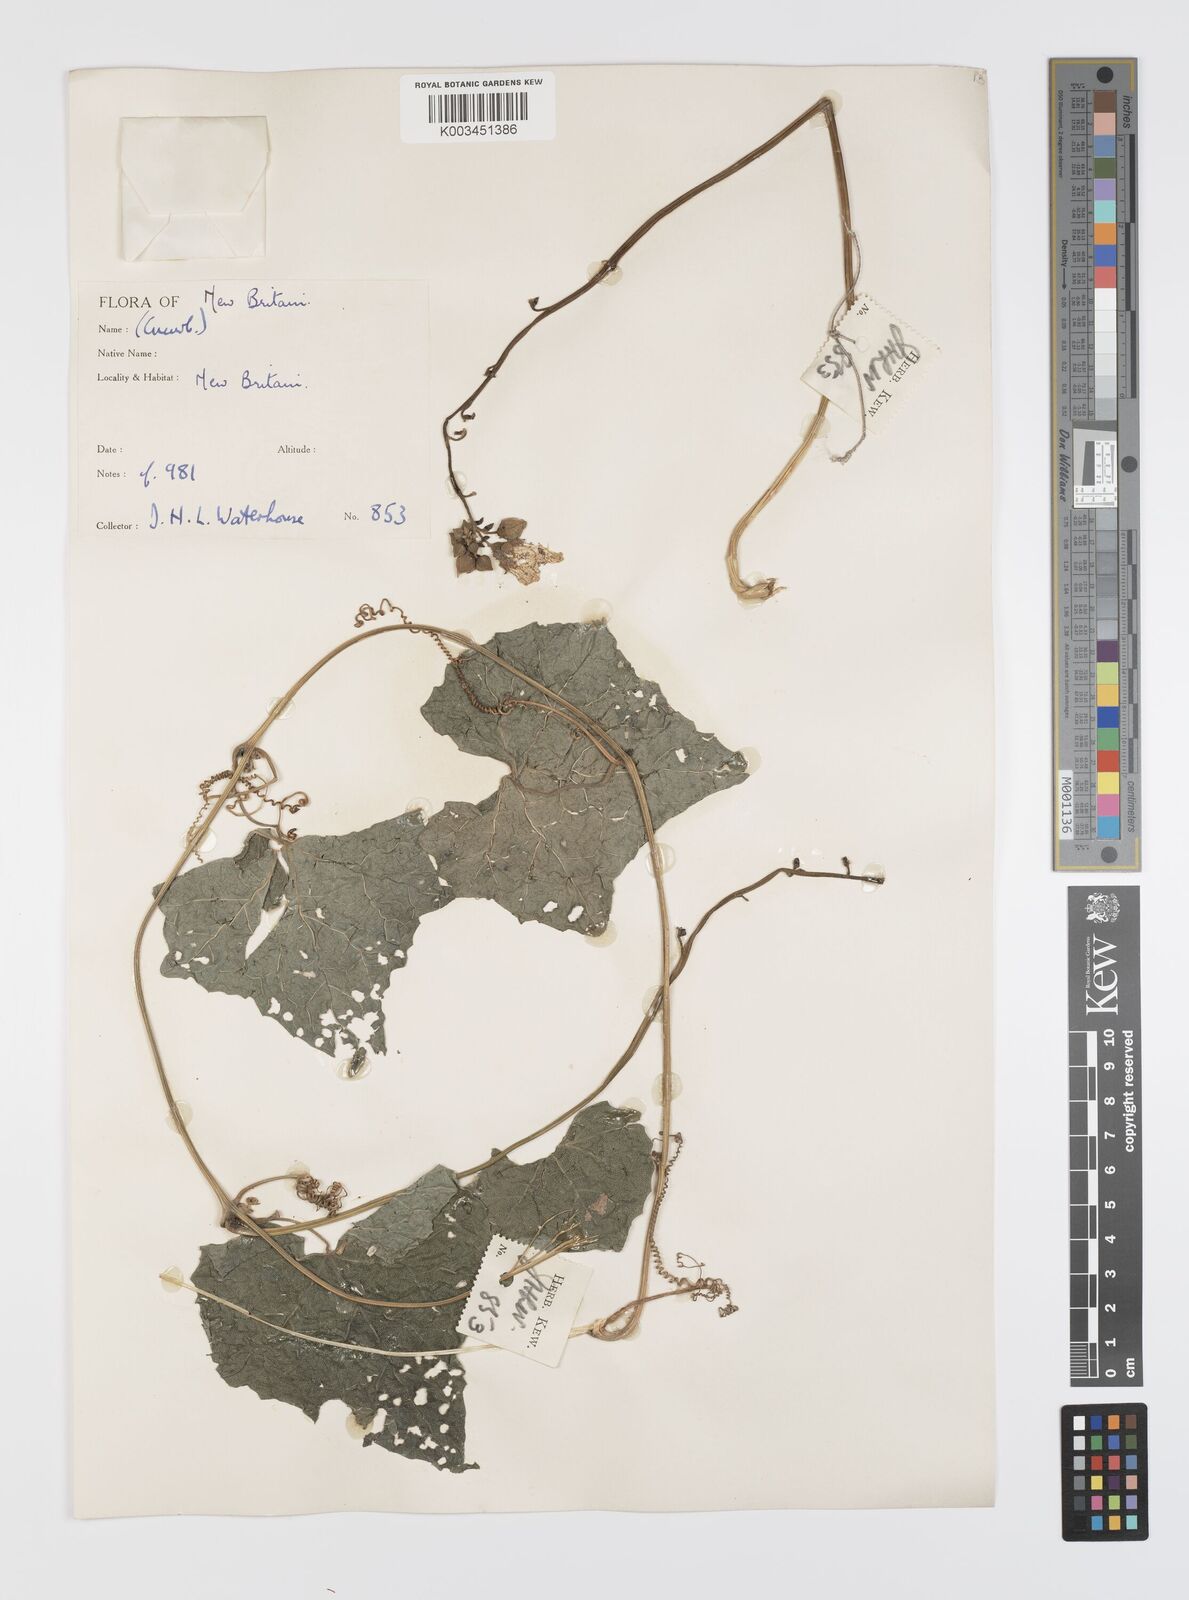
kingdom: Plantae
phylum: Tracheophyta
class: Magnoliopsida
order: Cucurbitales
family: Cucurbitaceae
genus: Luffa
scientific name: Luffa
